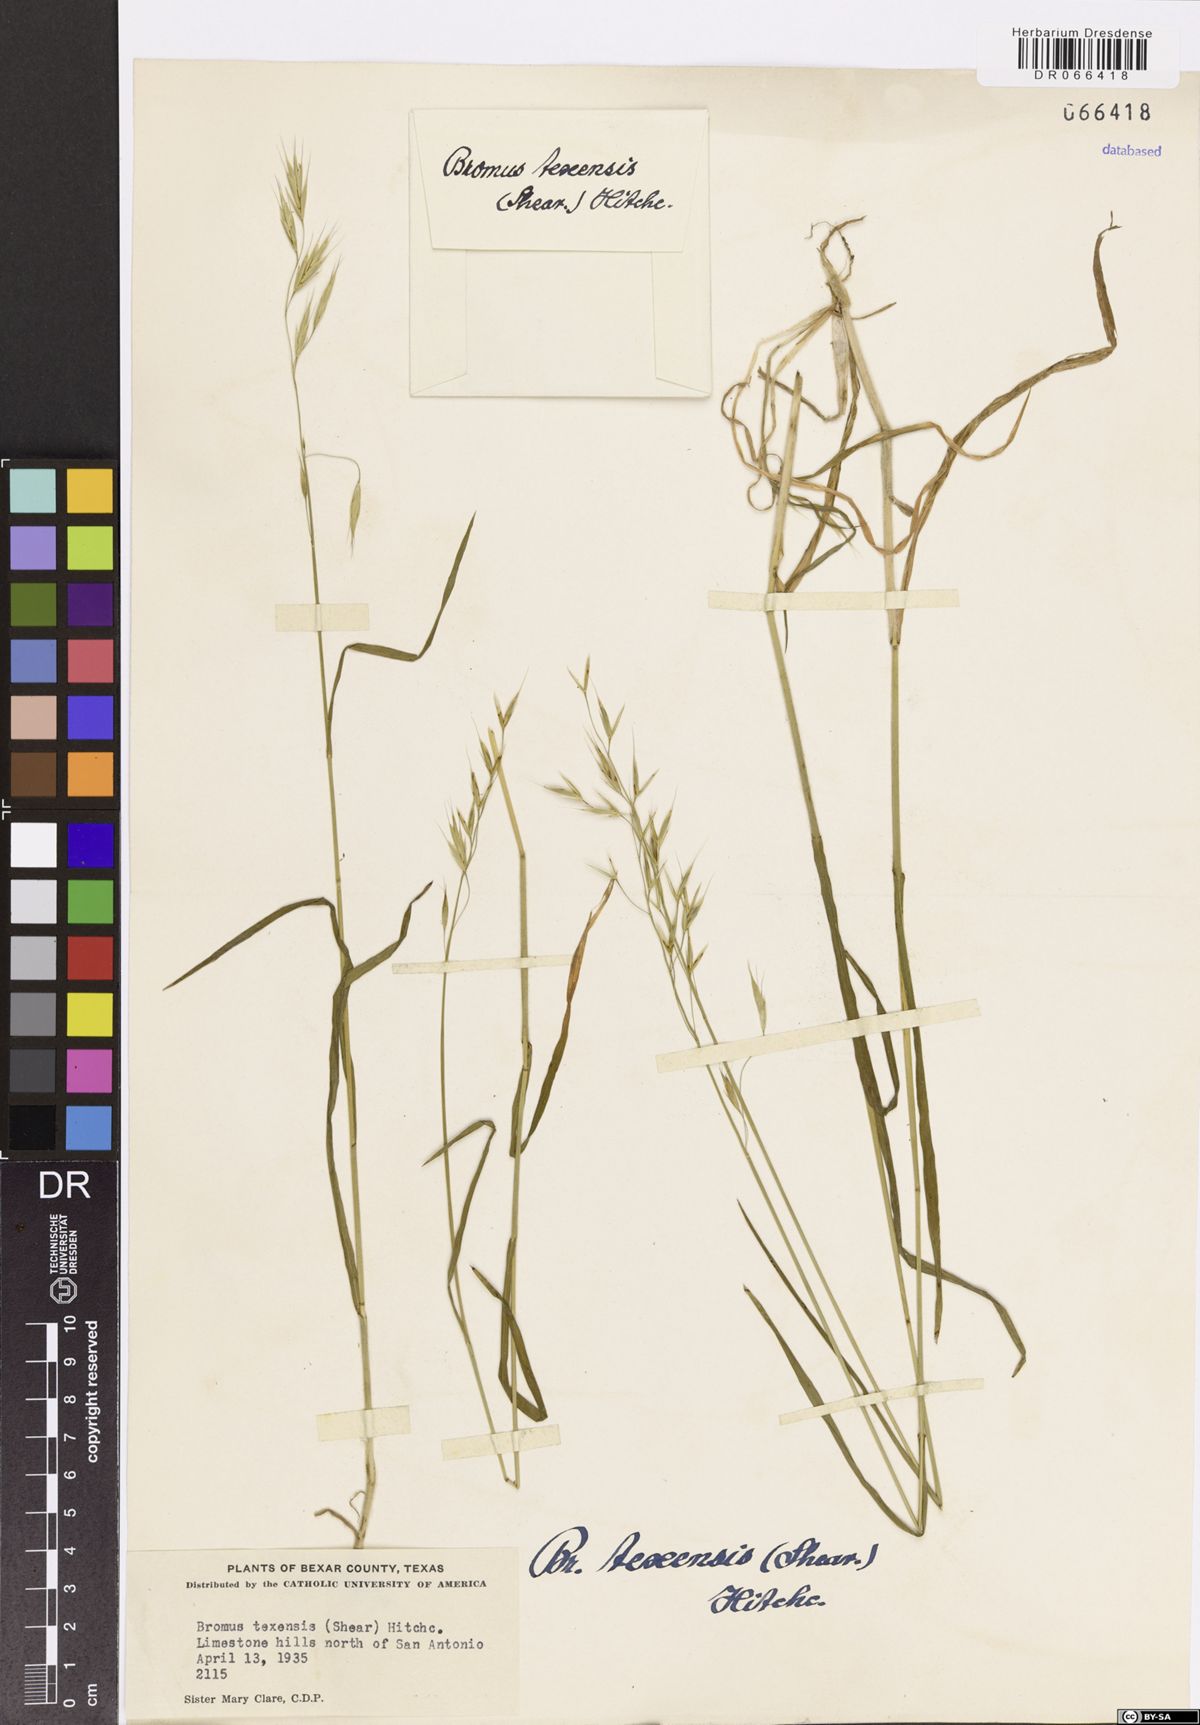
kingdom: Plantae
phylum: Tracheophyta
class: Liliopsida
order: Poales
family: Poaceae
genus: Bromus
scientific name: Bromus texensis
